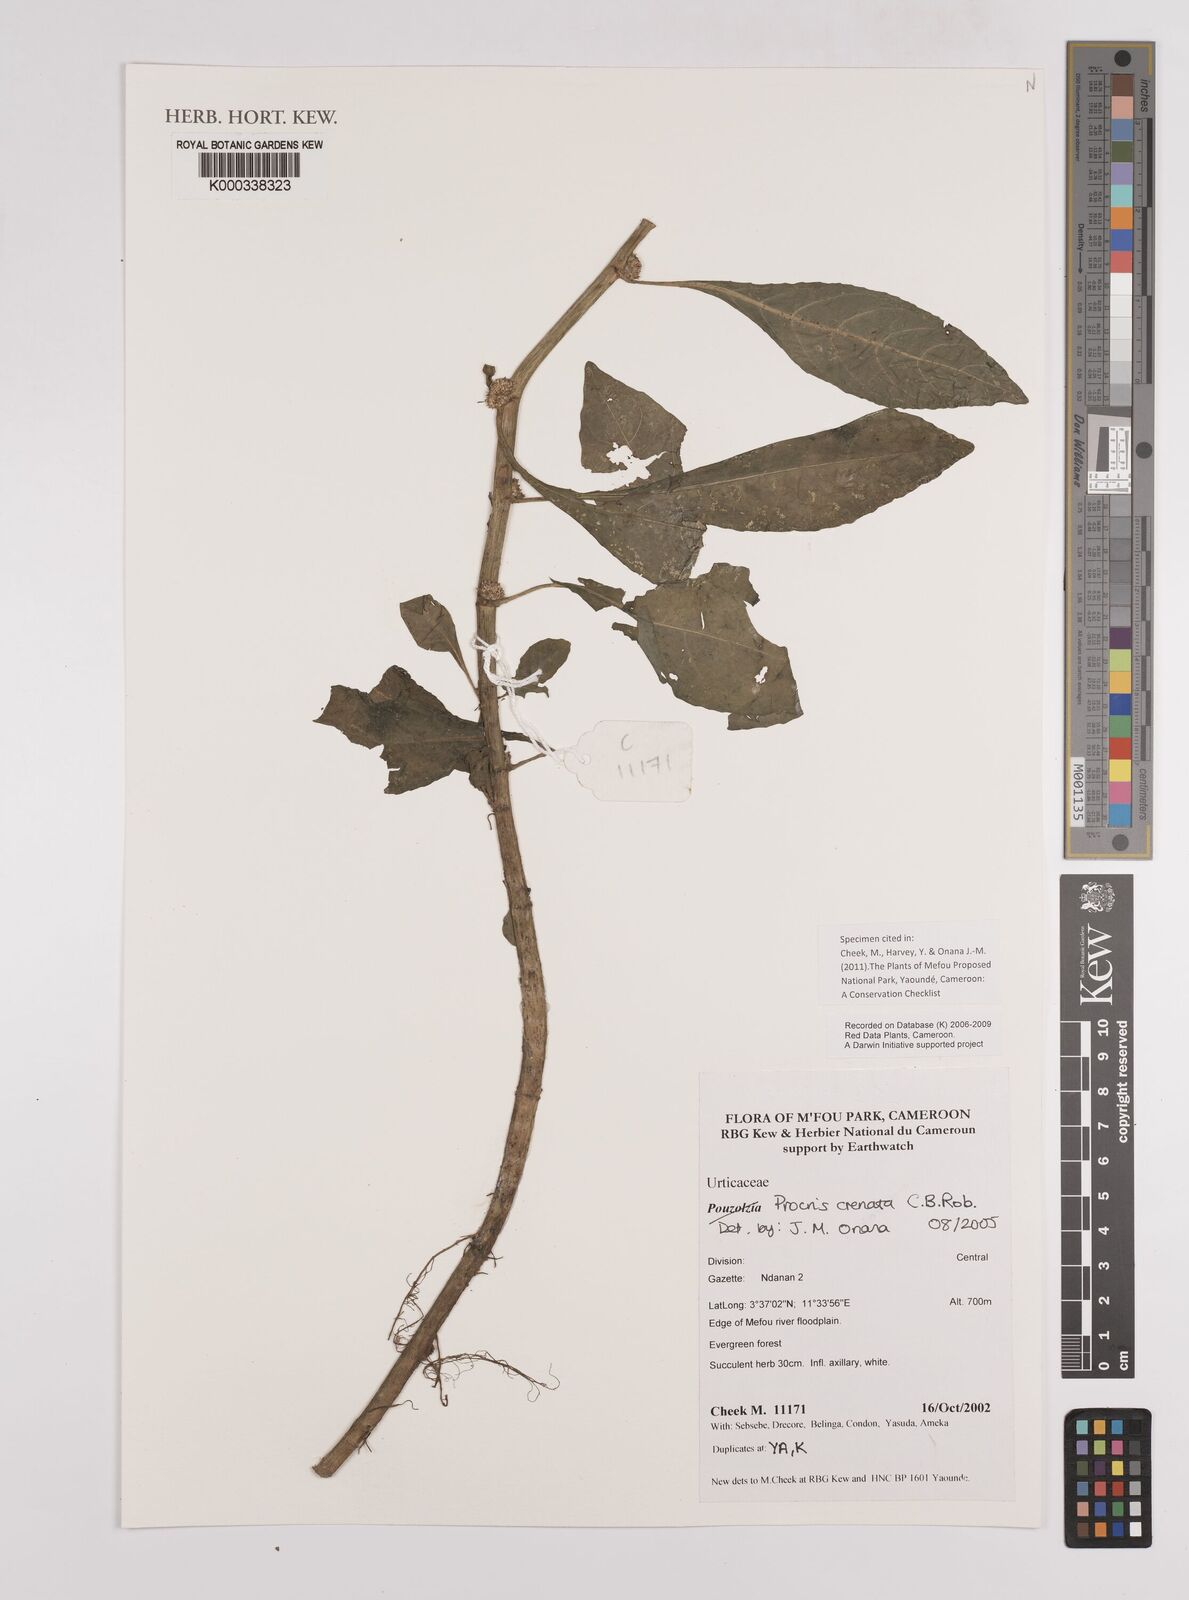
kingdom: Plantae
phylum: Tracheophyta
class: Magnoliopsida
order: Rosales
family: Urticaceae
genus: Procris
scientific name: Procris crenata
